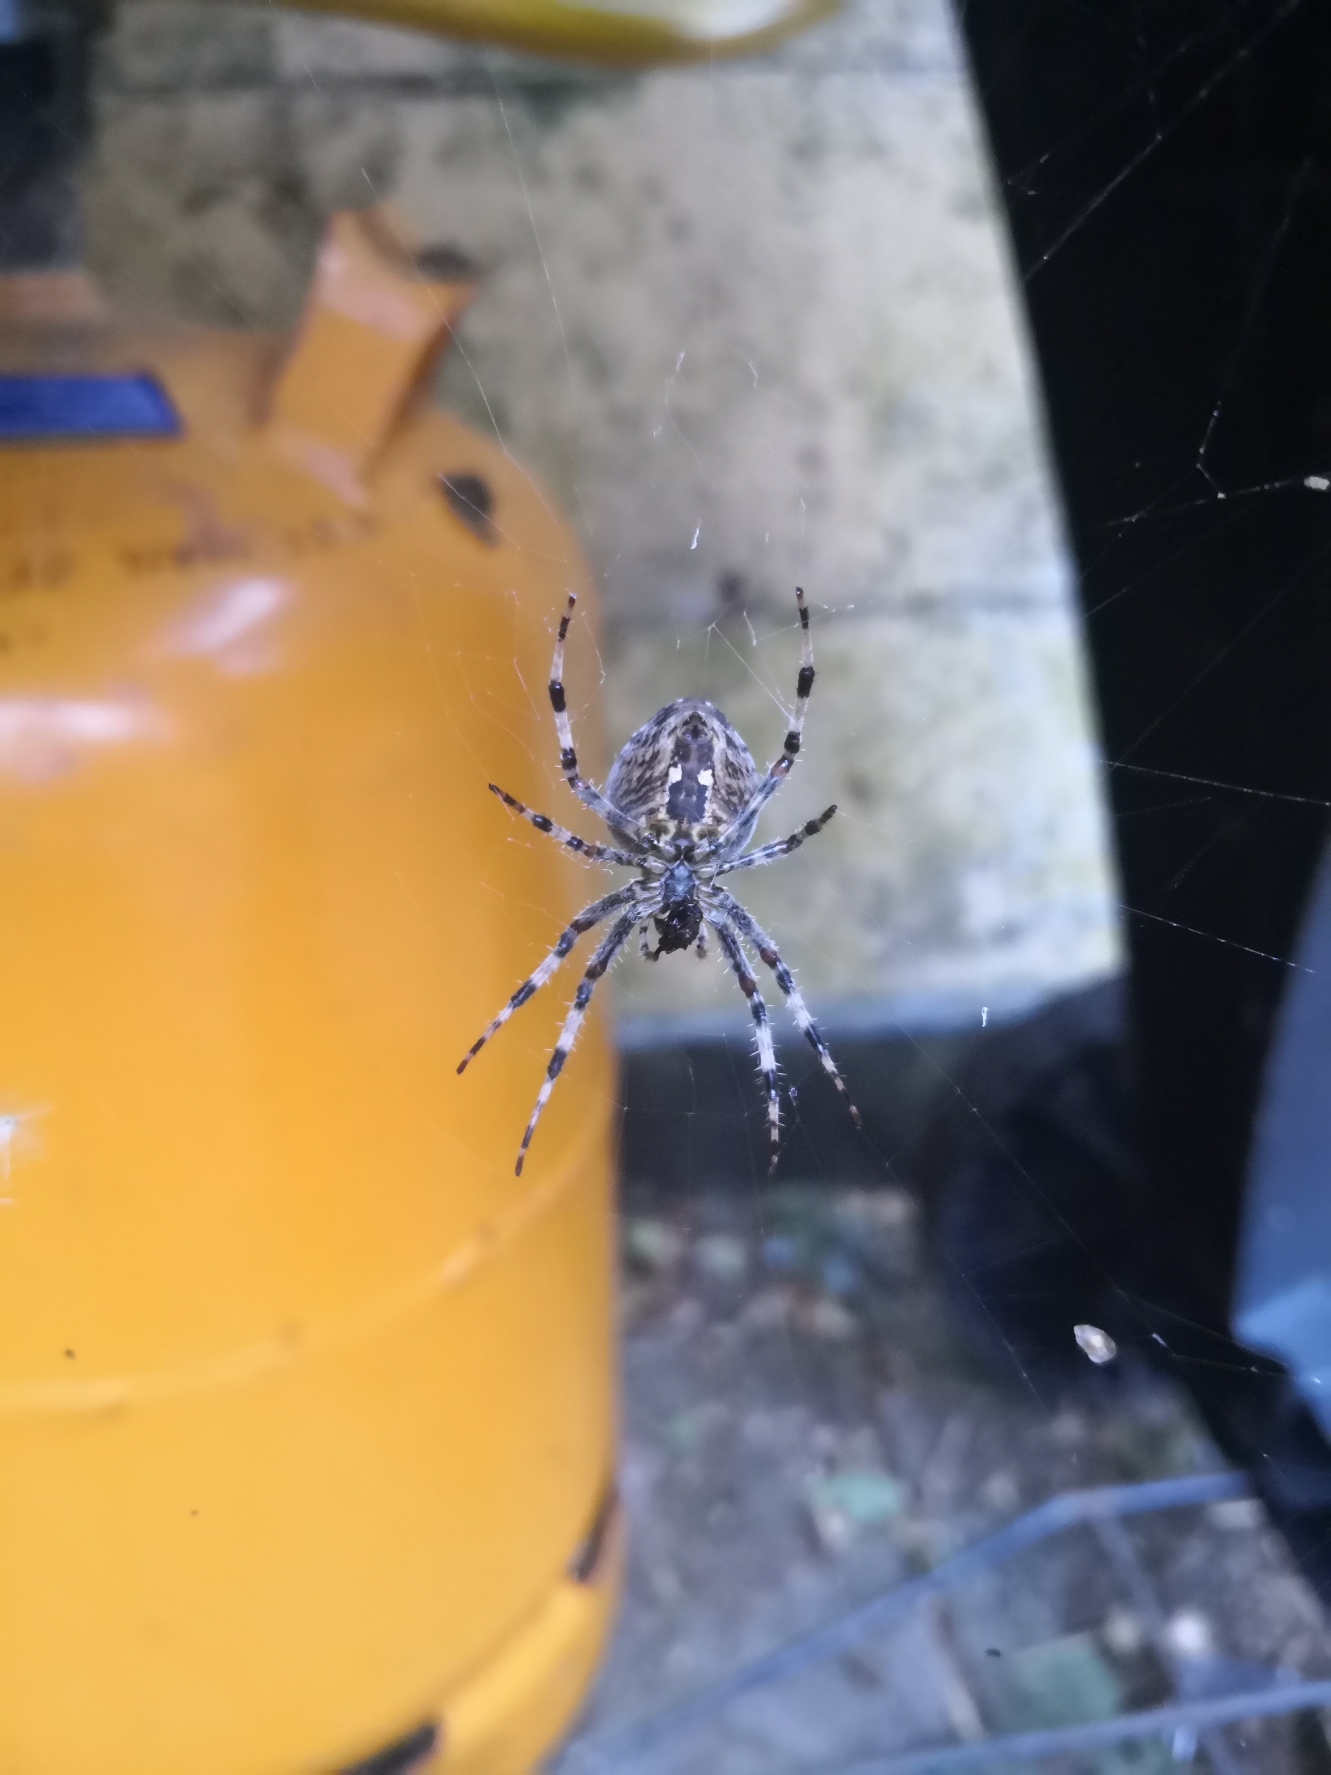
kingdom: Animalia
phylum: Arthropoda
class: Arachnida
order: Araneae
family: Araneidae
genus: Araneus
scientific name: Araneus diadematus
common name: Korsedderkop
